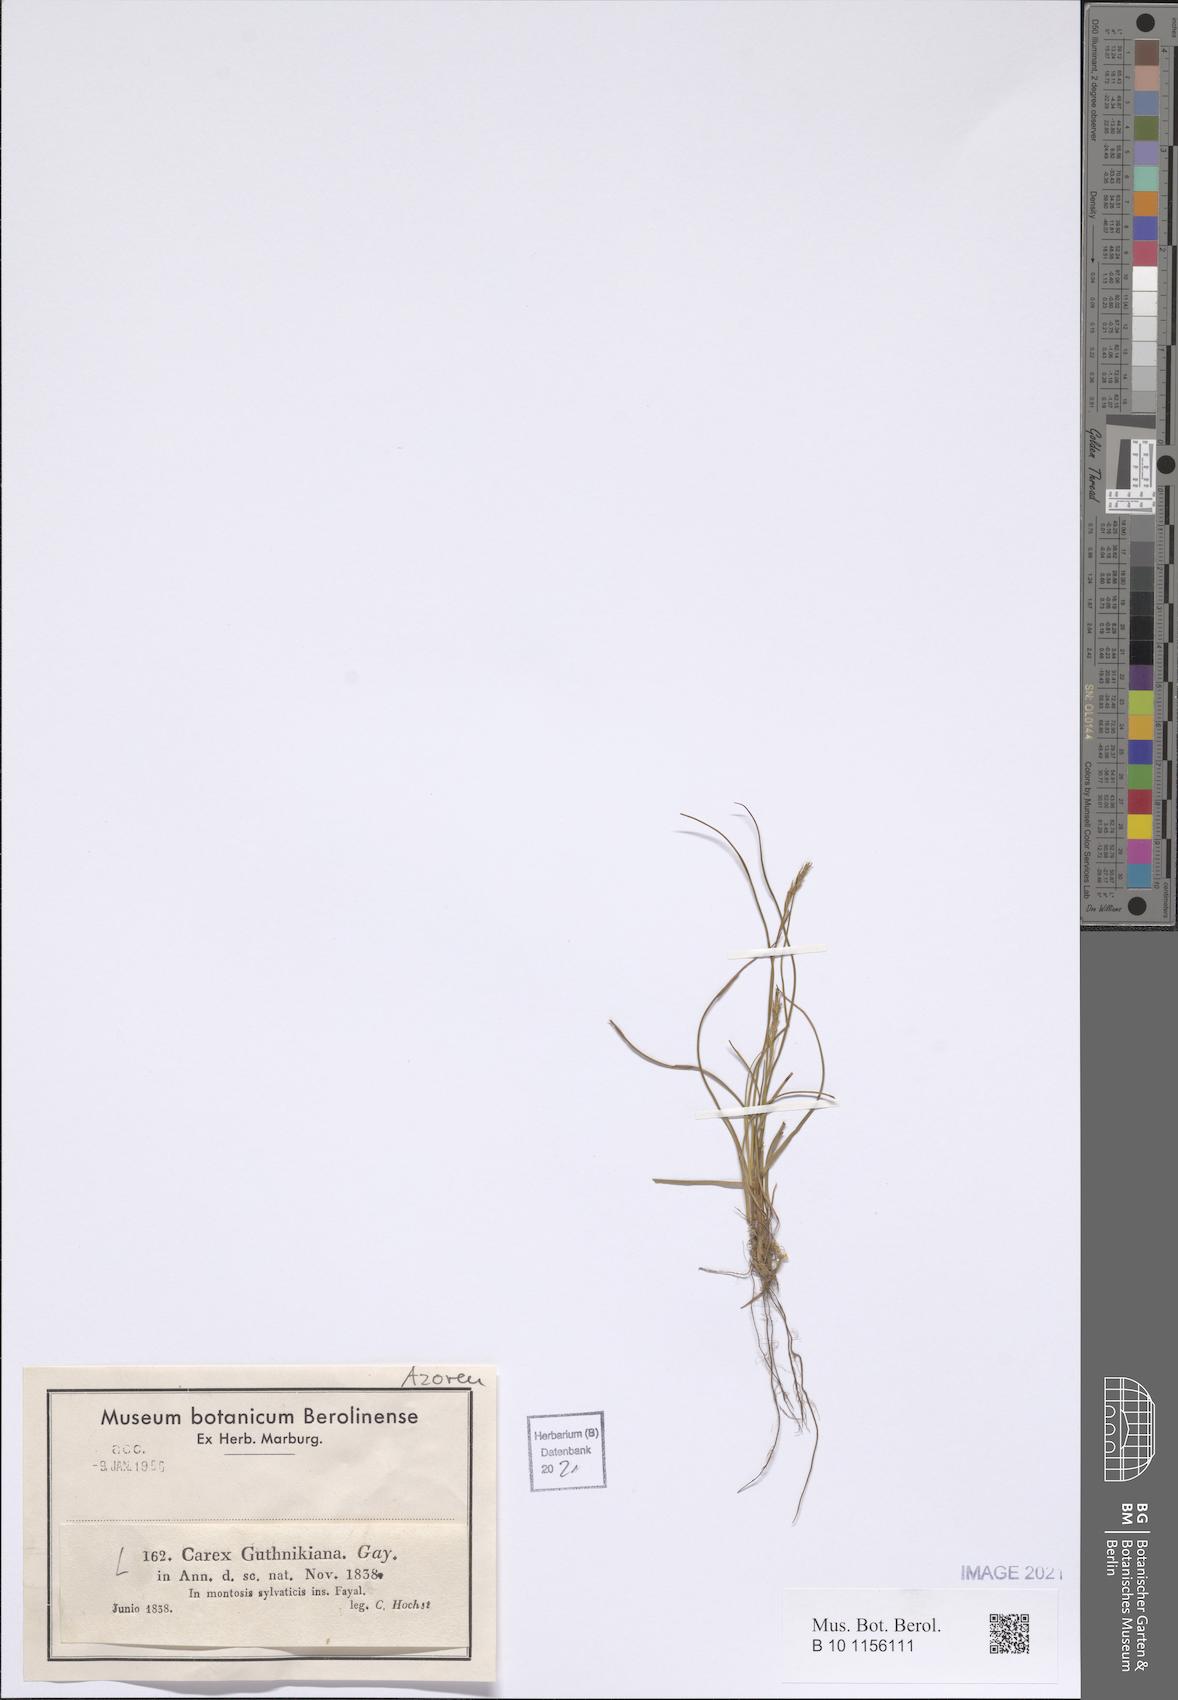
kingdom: Plantae
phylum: Tracheophyta
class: Liliopsida
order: Poales
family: Cyperaceae
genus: Carex
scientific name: Carex peregrina
